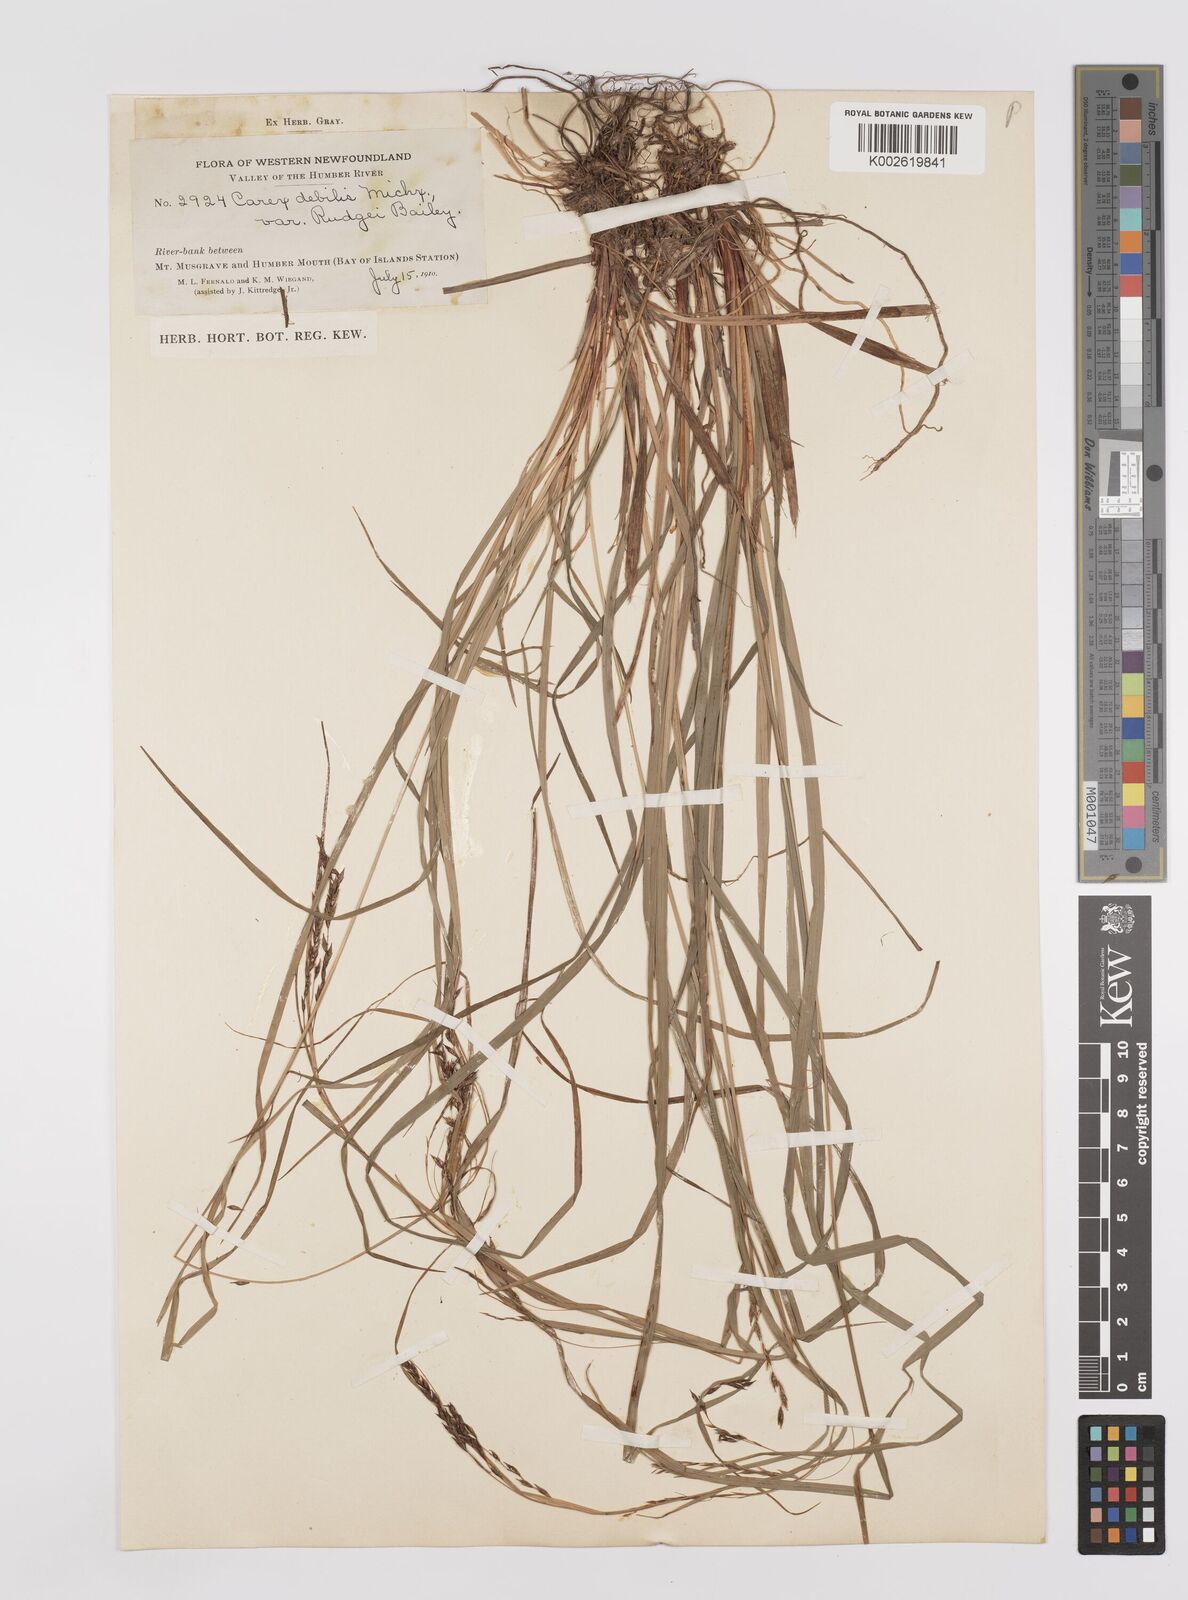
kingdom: Plantae
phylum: Tracheophyta
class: Liliopsida
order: Poales
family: Cyperaceae
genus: Carex
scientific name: Carex debilis
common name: White-edge sedge
